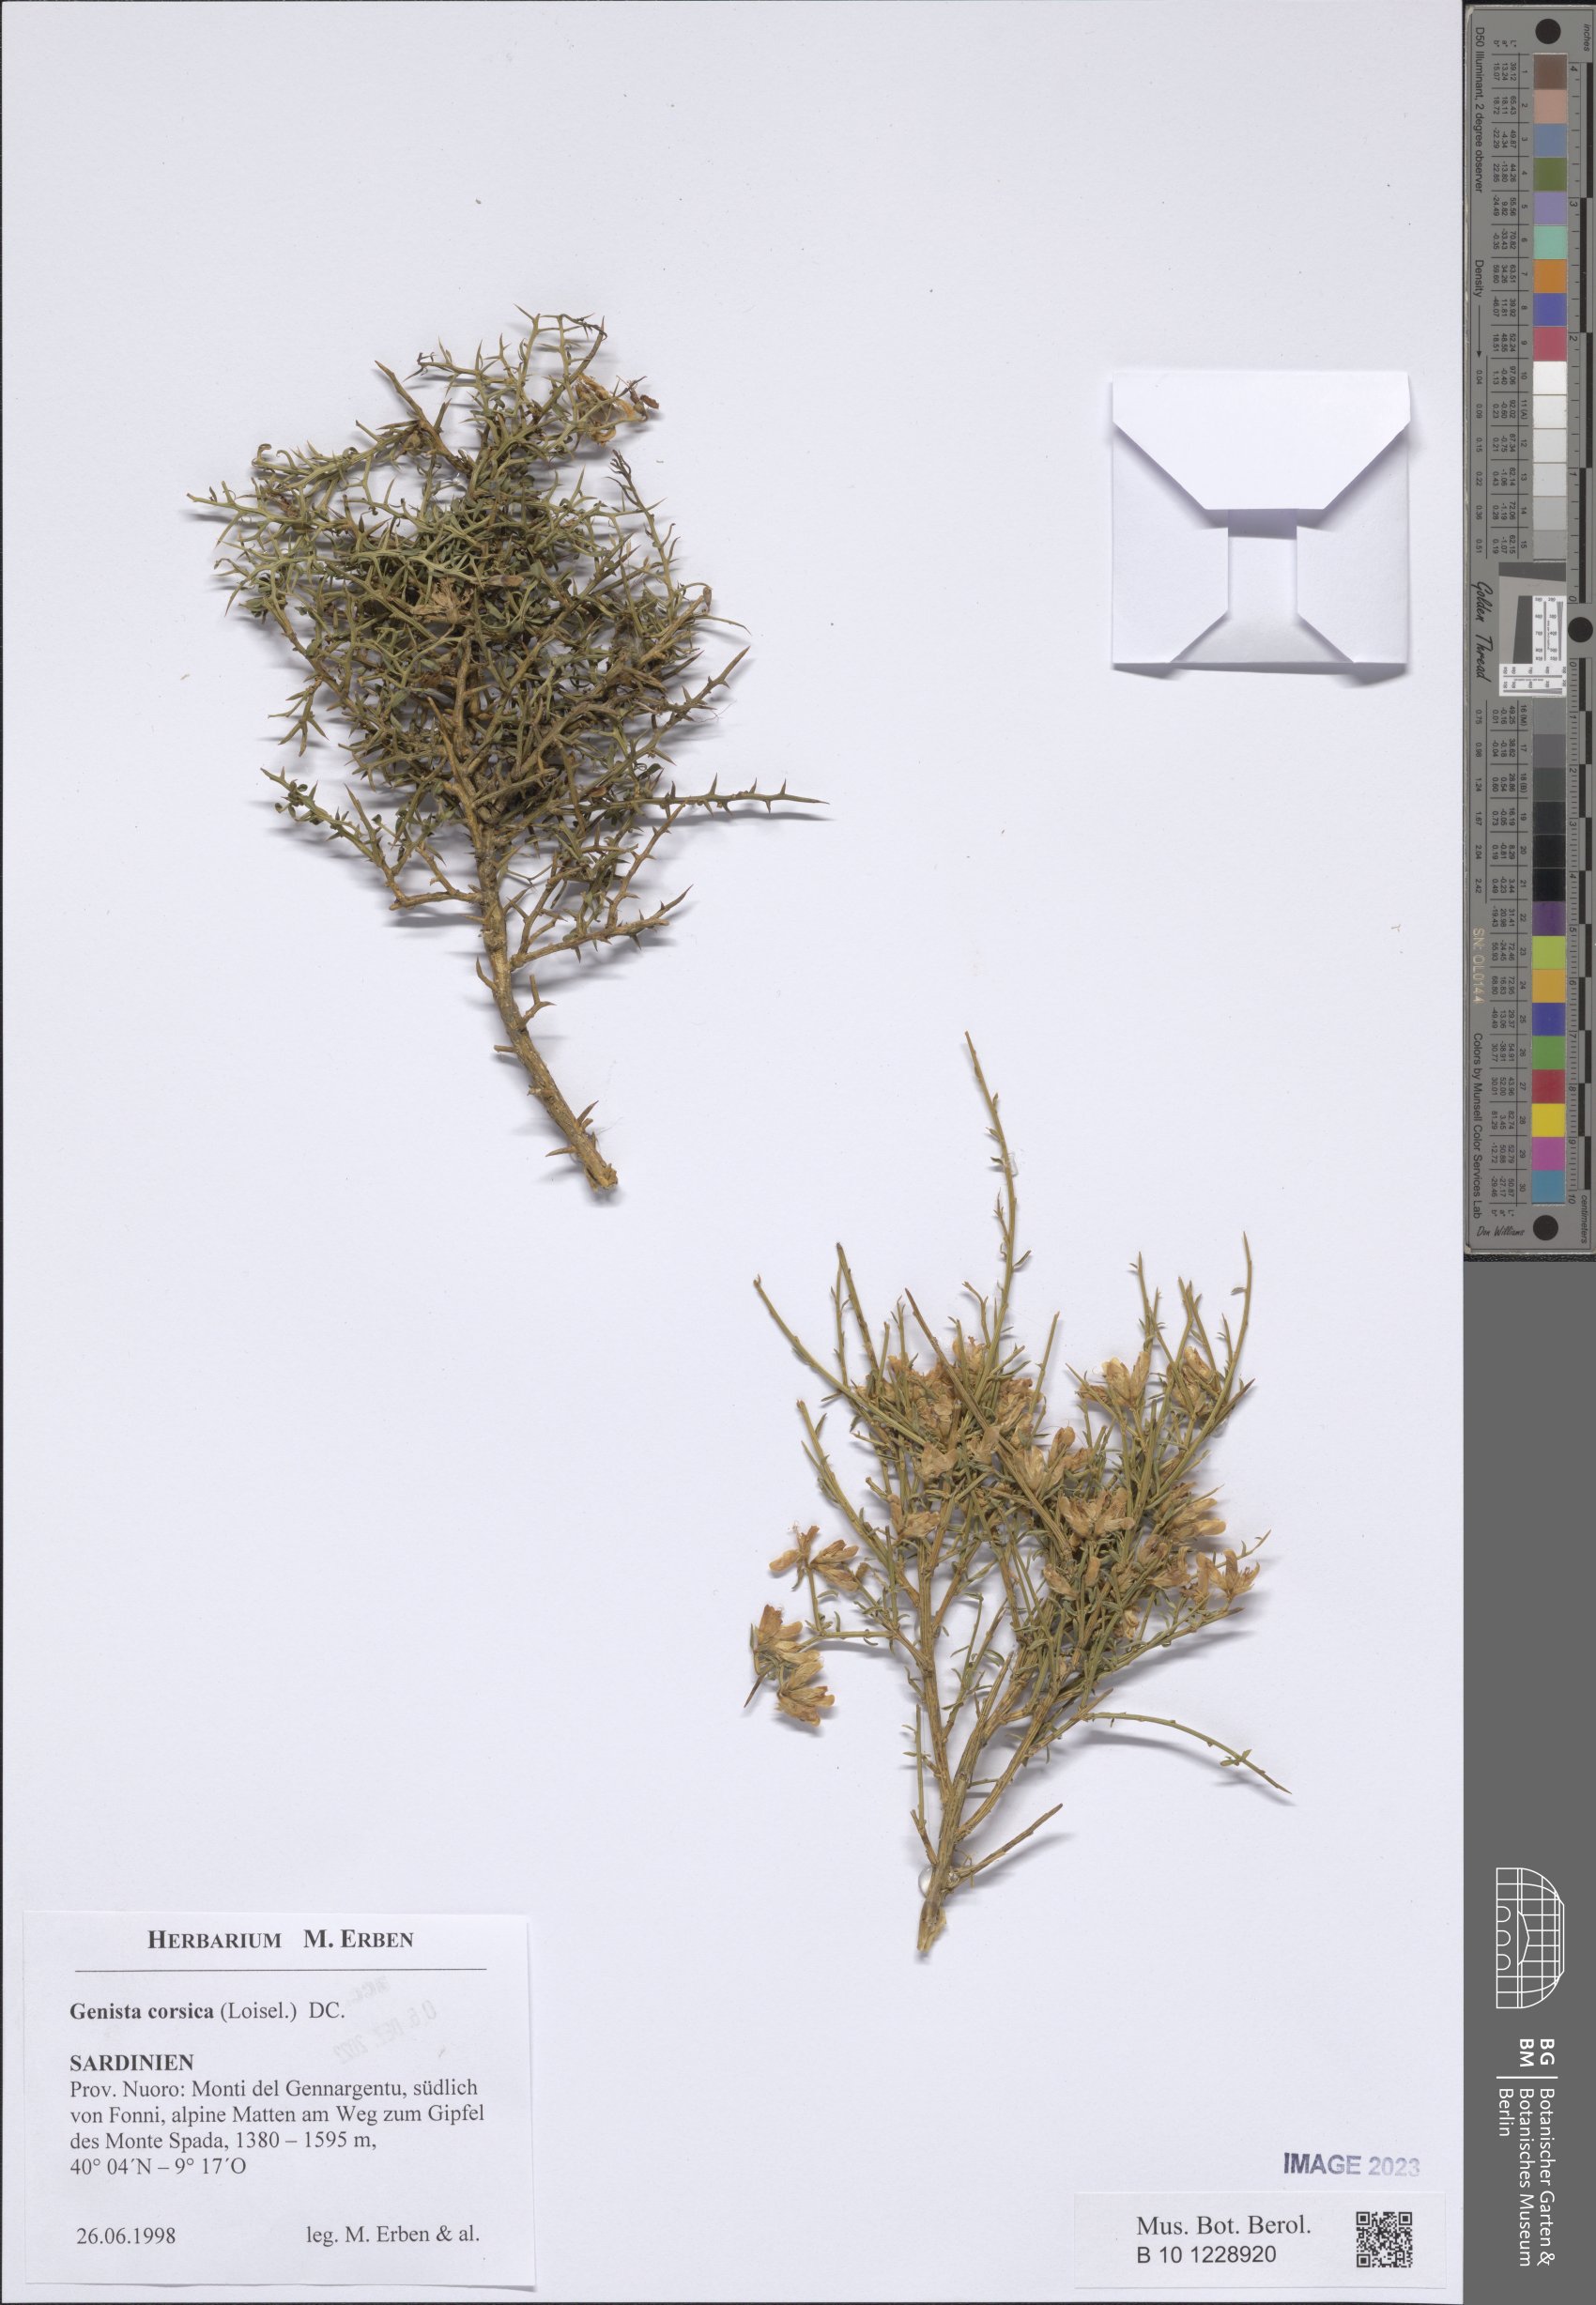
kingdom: Plantae
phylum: Tracheophyta
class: Magnoliopsida
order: Fabales
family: Fabaceae
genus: Genista
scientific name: Genista corsica
